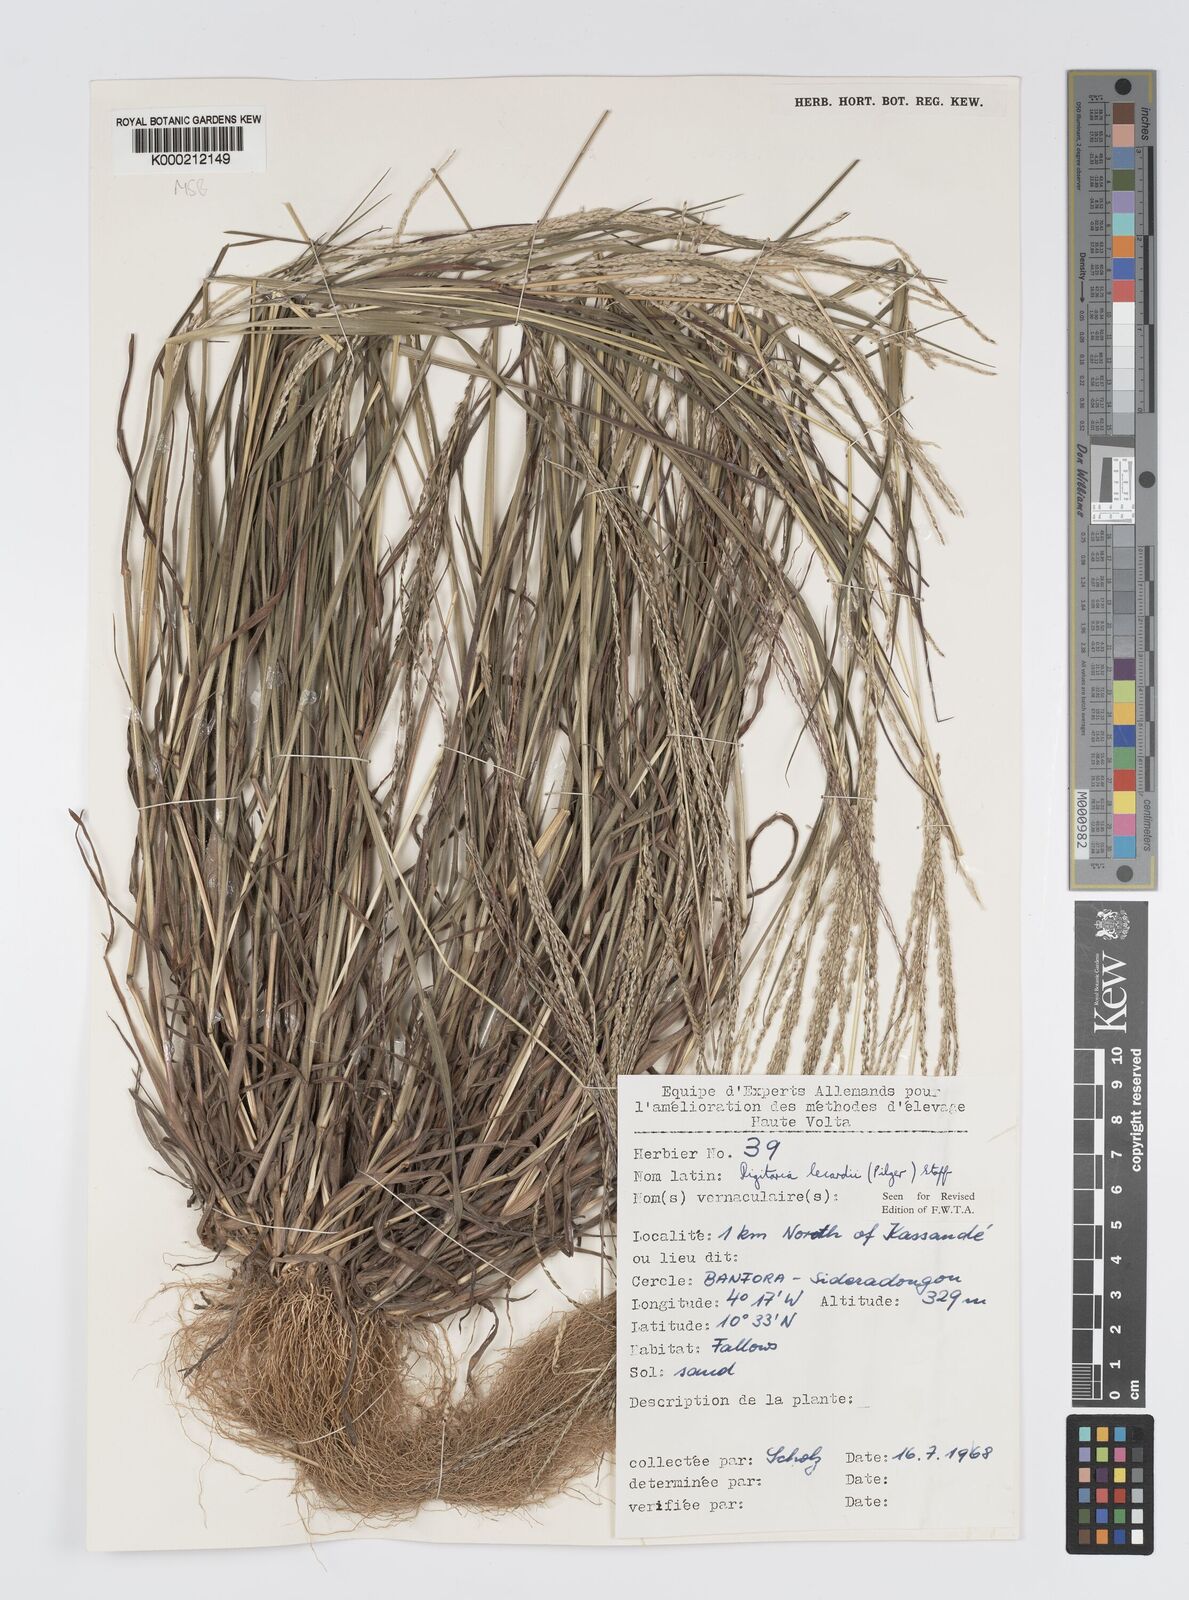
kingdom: Plantae
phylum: Tracheophyta
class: Liliopsida
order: Poales
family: Poaceae
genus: Digitaria
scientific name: Digitaria argillacea
